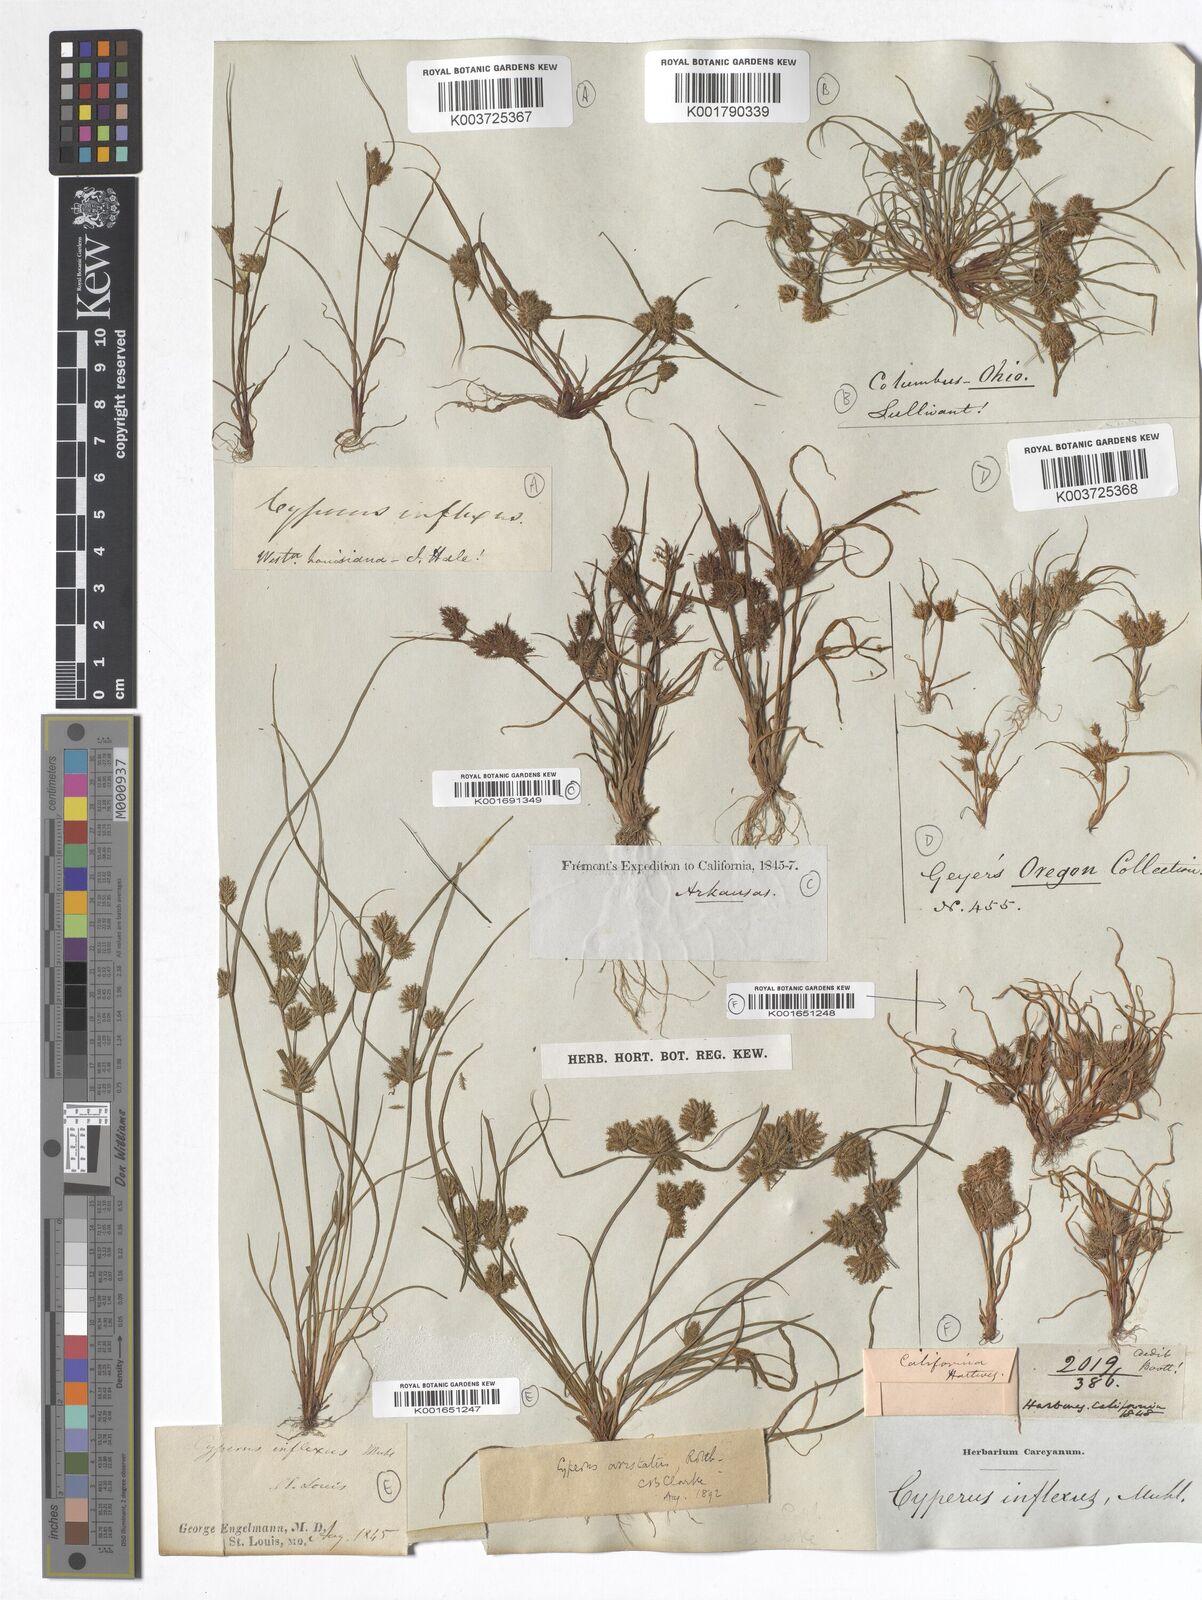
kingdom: Plantae
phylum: Tracheophyta
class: Liliopsida
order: Poales
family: Cyperaceae
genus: Cyperus
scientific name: Cyperus squarrosus
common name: Awned cyperus
